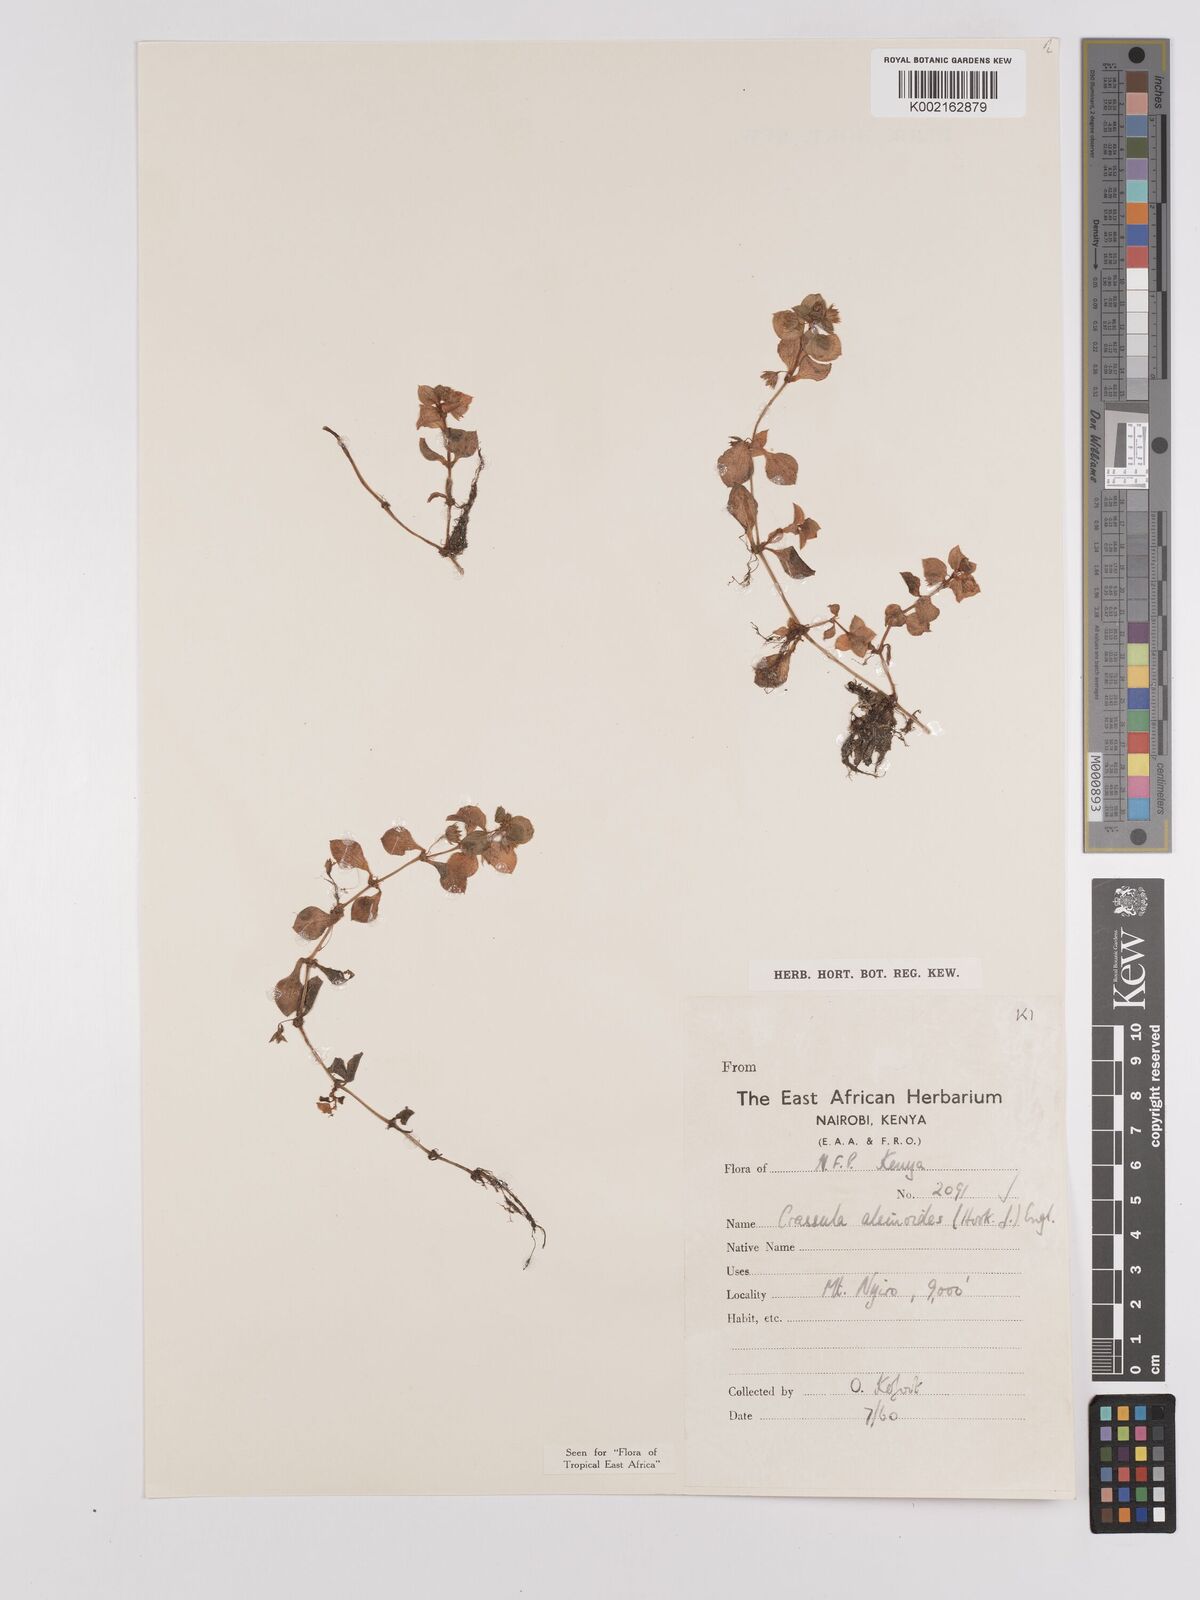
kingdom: Plantae
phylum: Tracheophyta
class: Magnoliopsida
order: Saxifragales
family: Crassulaceae
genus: Crassula
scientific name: Crassula alsinoides
